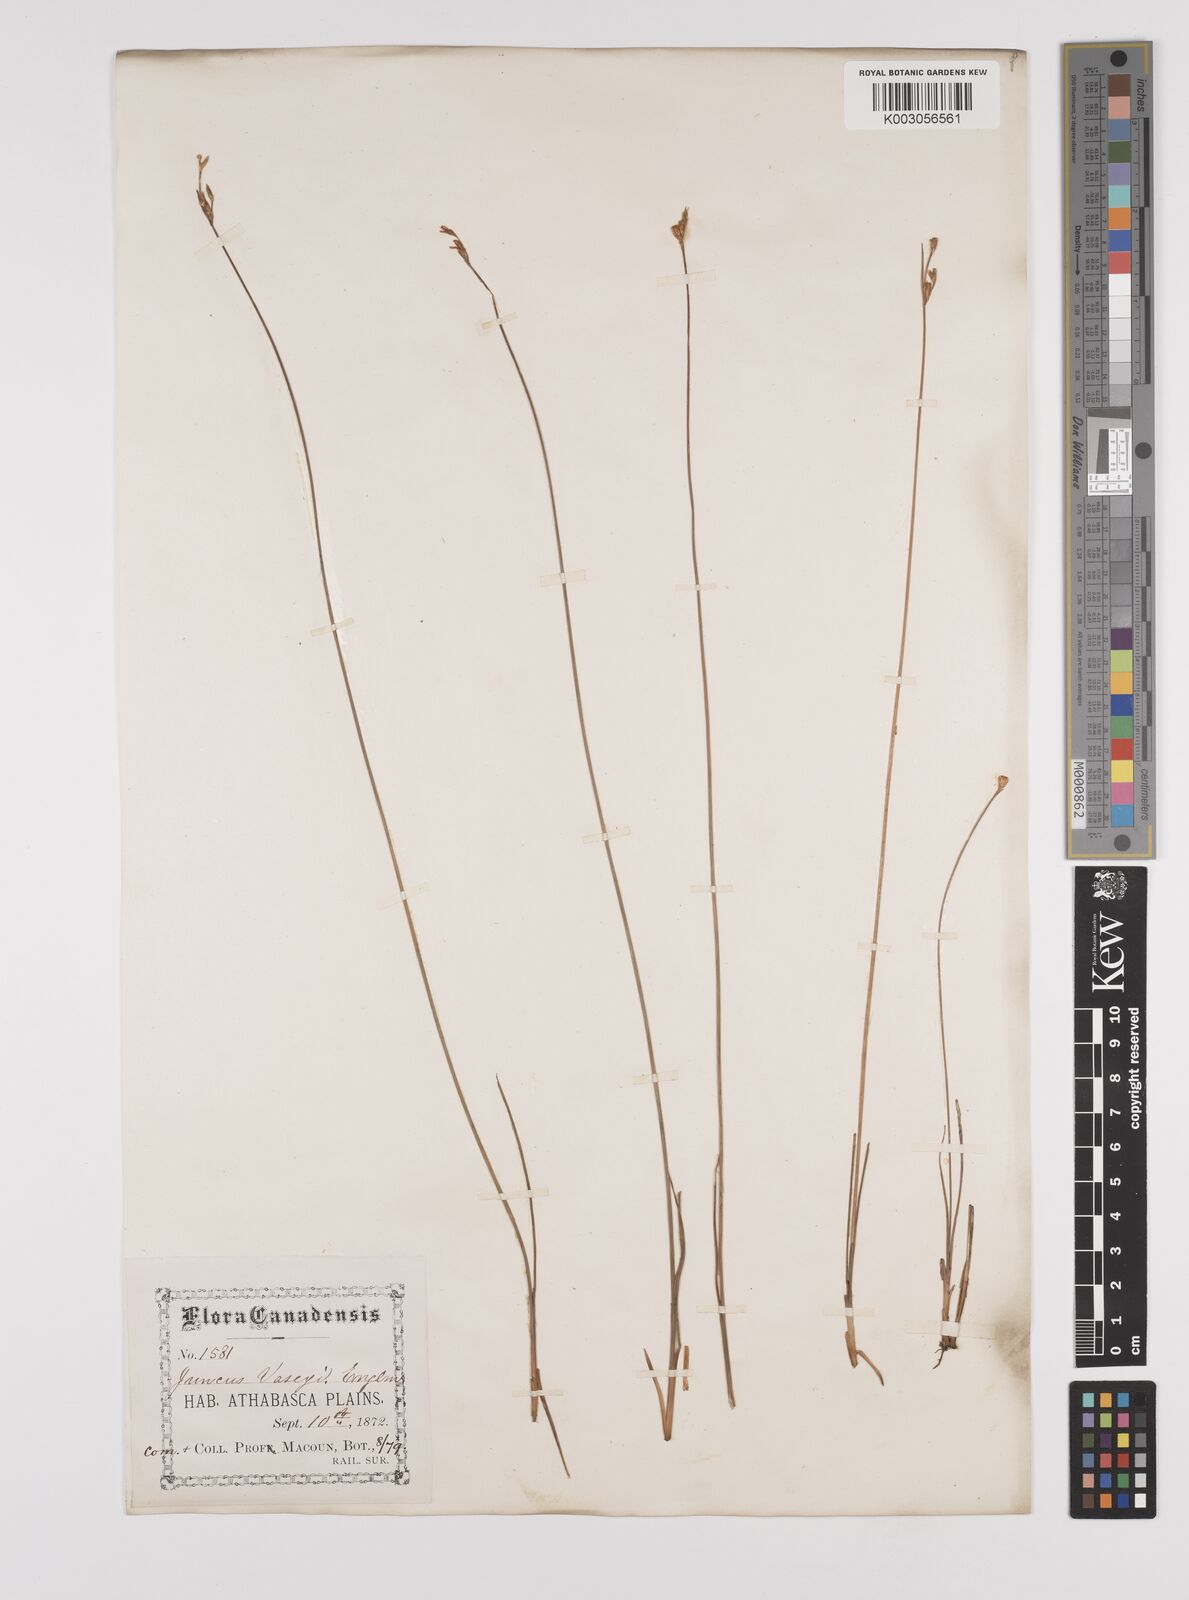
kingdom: Plantae
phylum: Tracheophyta
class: Liliopsida
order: Poales
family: Juncaceae
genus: Juncus
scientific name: Juncus vaseyi
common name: Big-headed rush
